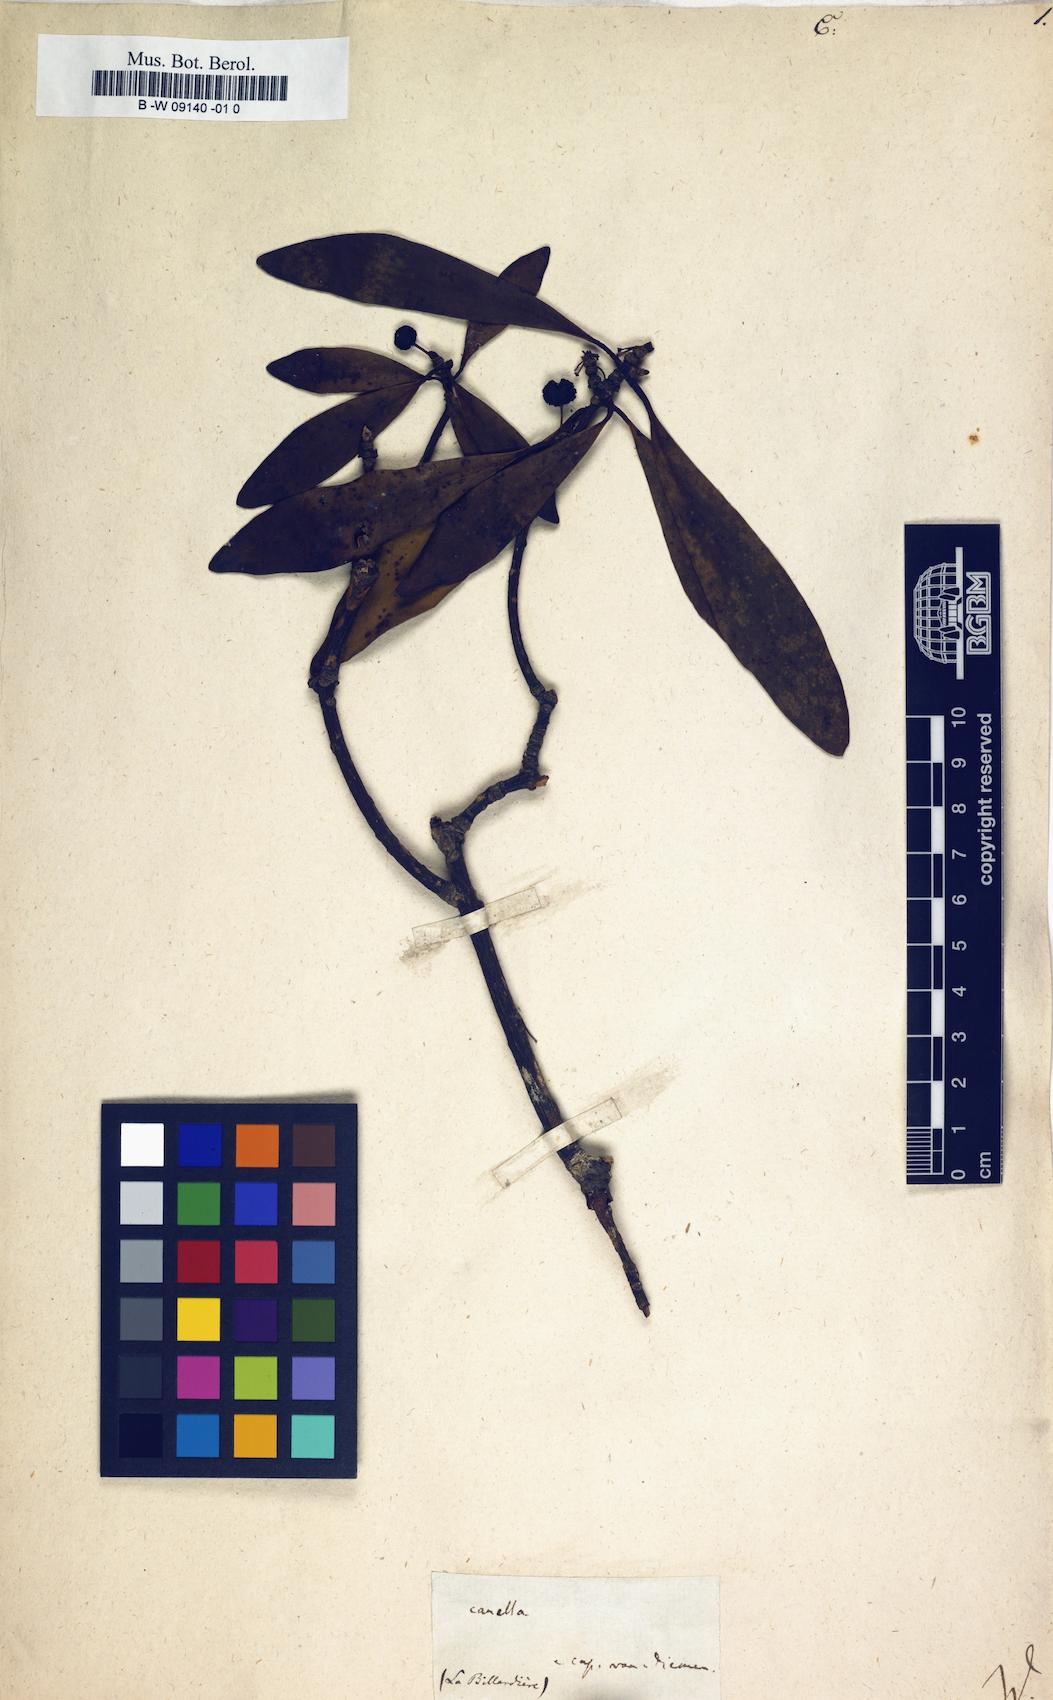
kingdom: Plantae
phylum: Tracheophyta
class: Magnoliopsida
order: Canellales
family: Canellaceae
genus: Canella
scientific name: Canella
